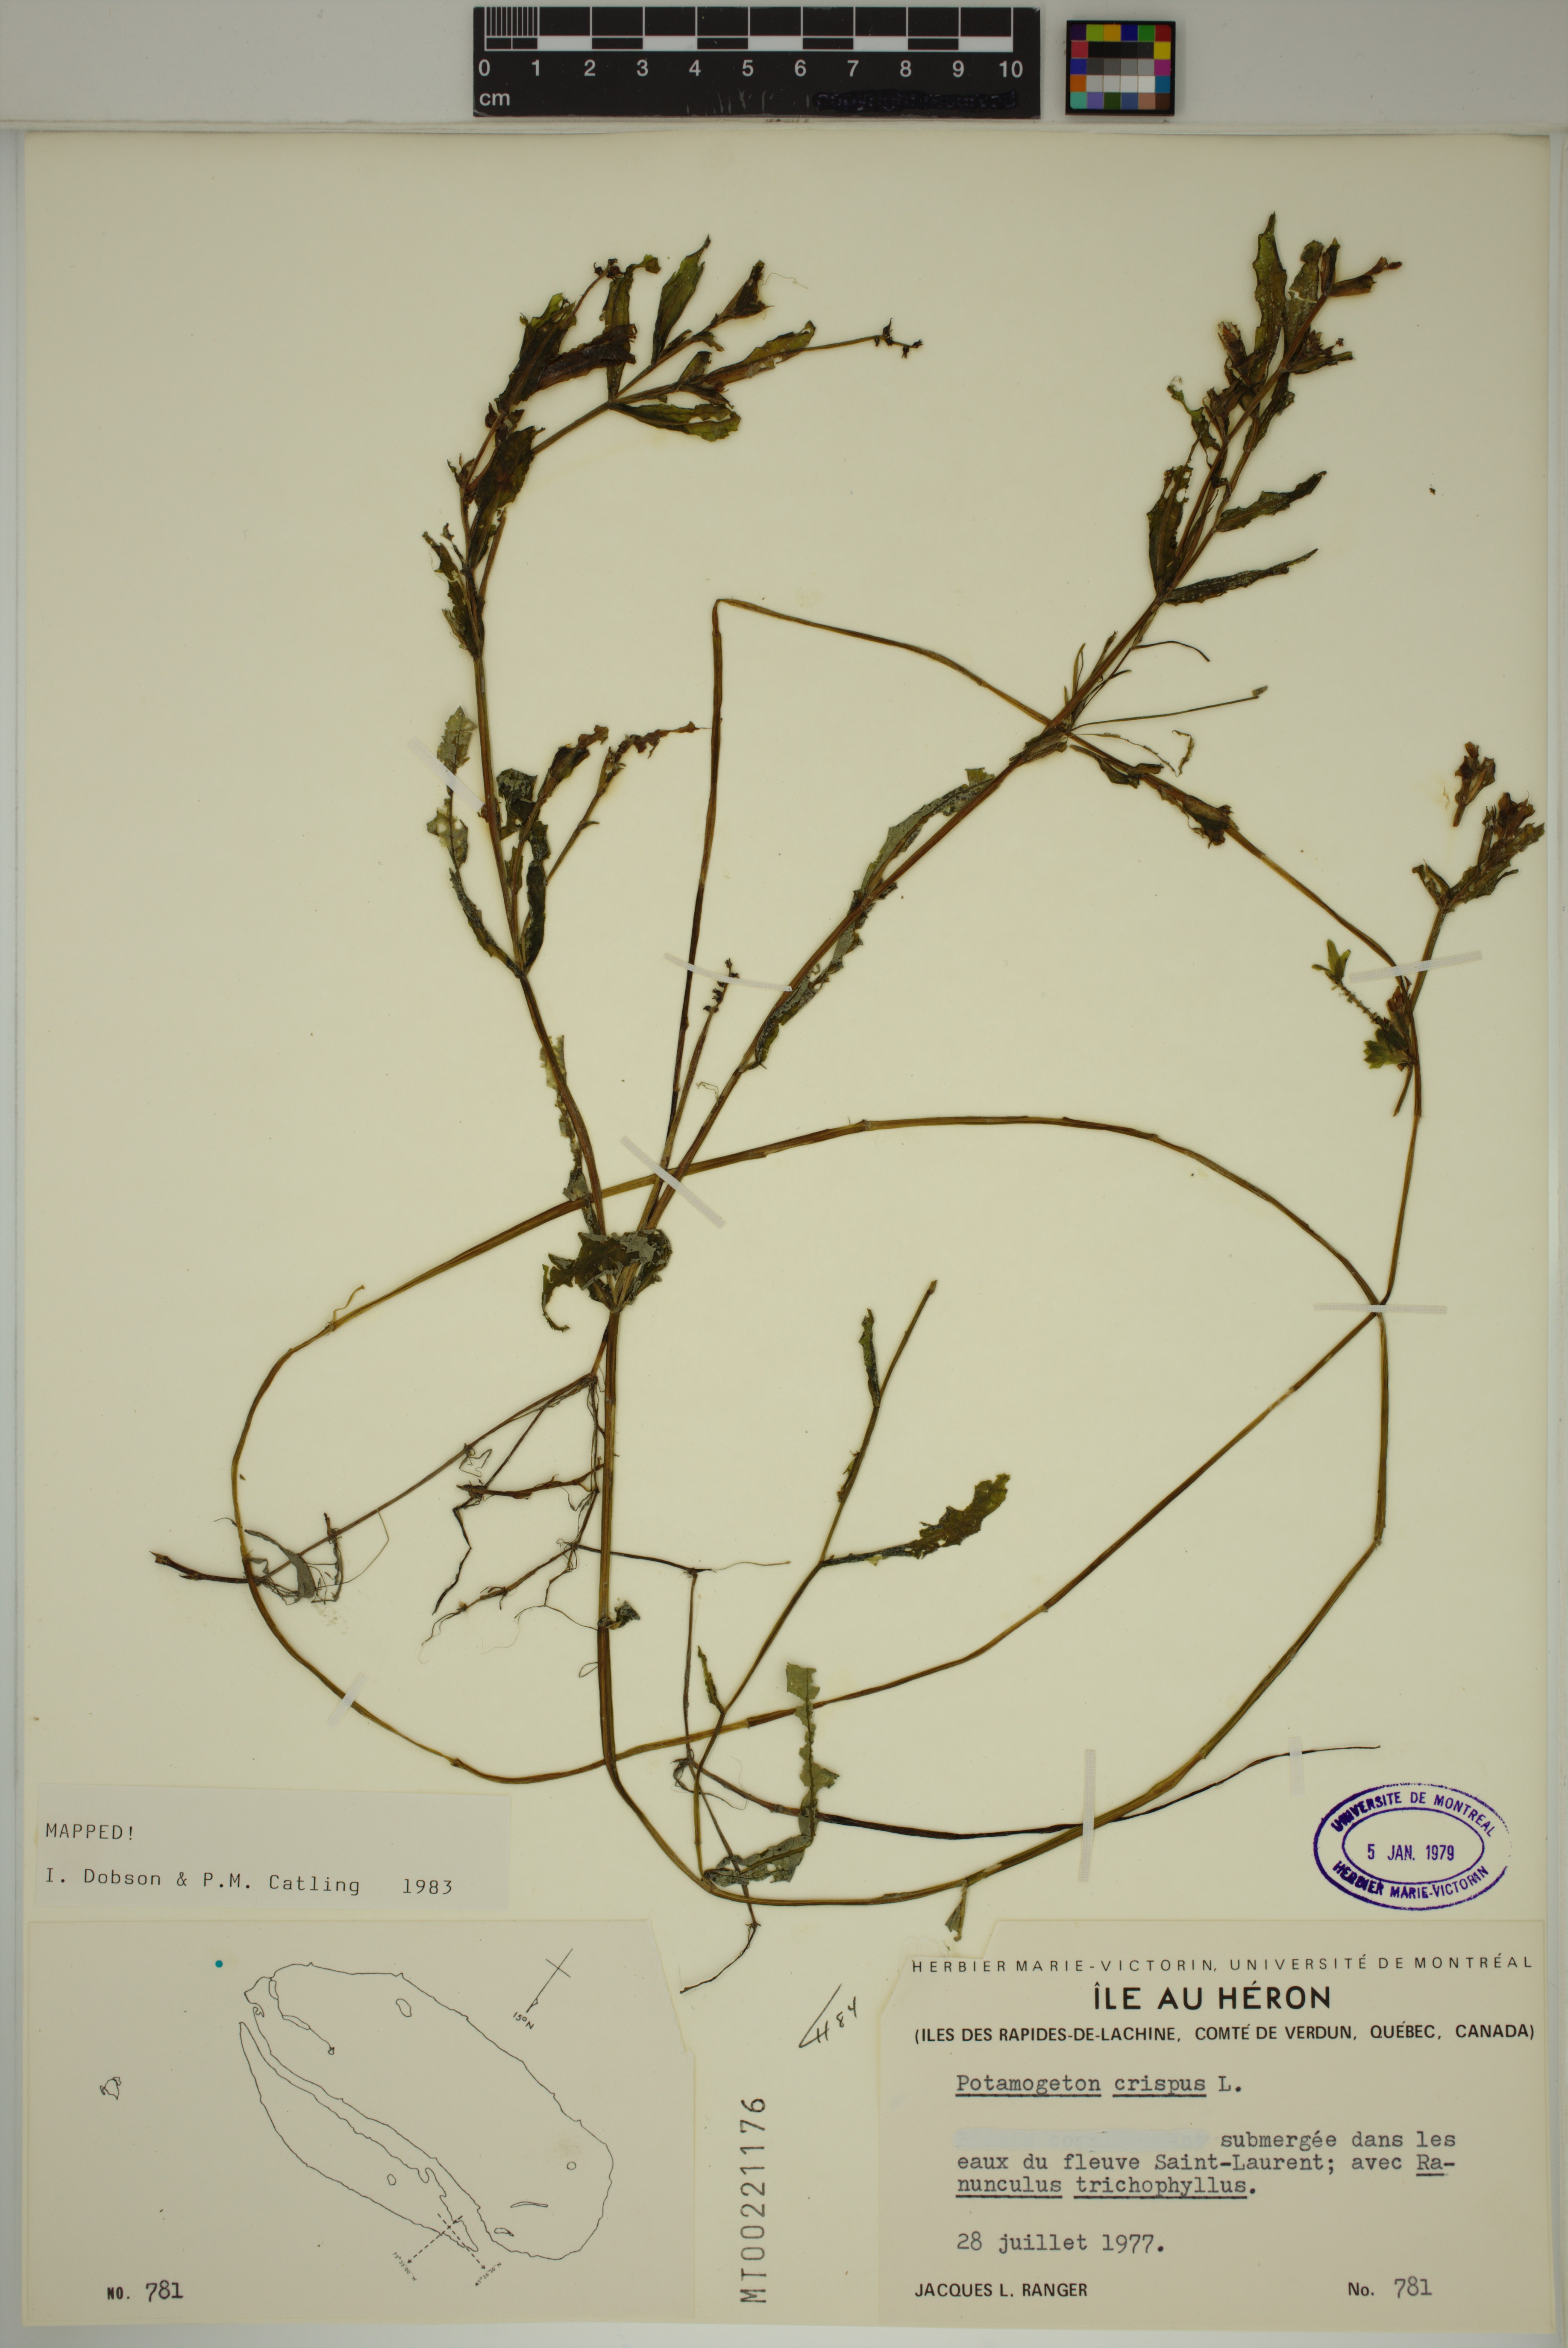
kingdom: Plantae
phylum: Tracheophyta
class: Liliopsida
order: Alismatales
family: Potamogetonaceae
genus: Potamogeton
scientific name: Potamogeton crispus
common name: Curled pondweed
